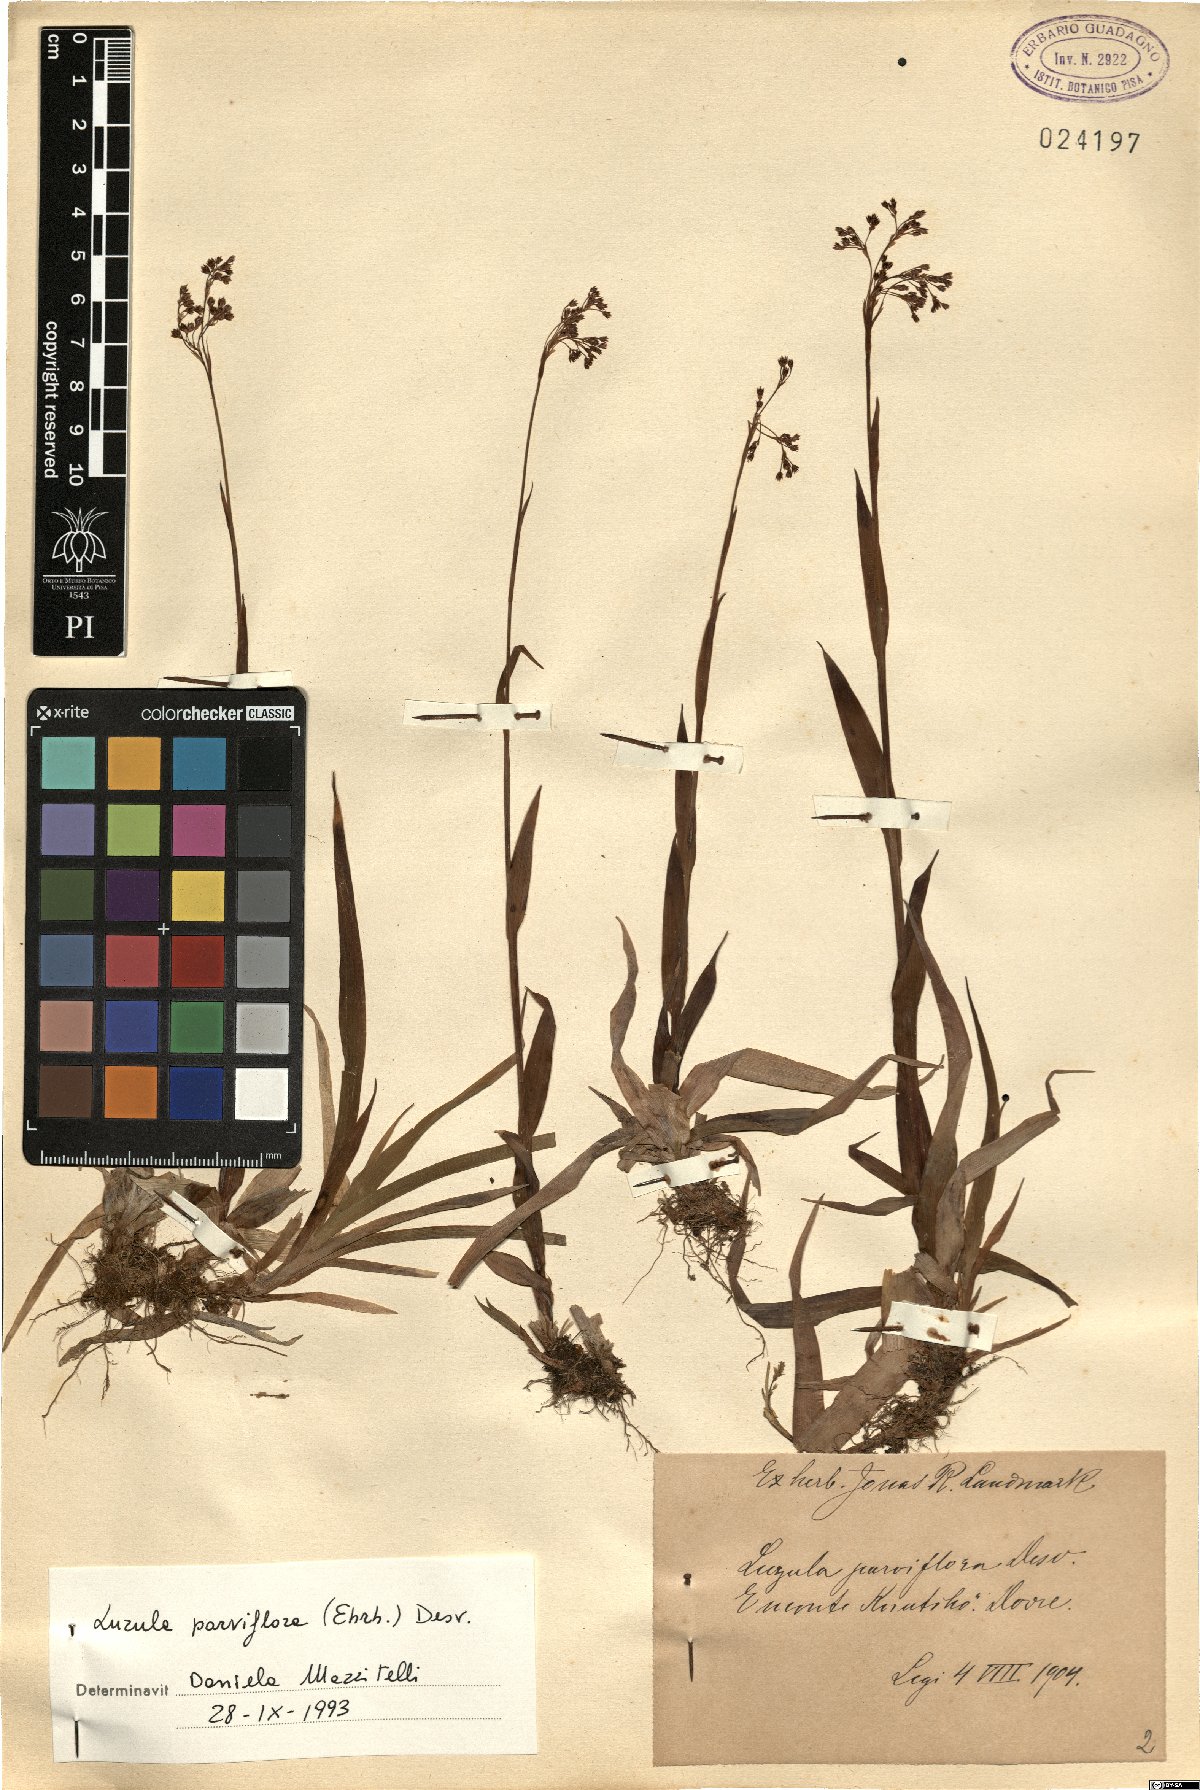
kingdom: Plantae
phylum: Tracheophyta
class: Liliopsida
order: Poales
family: Juncaceae
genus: Luzula
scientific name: Luzula parviflora
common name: Millet woodrush
